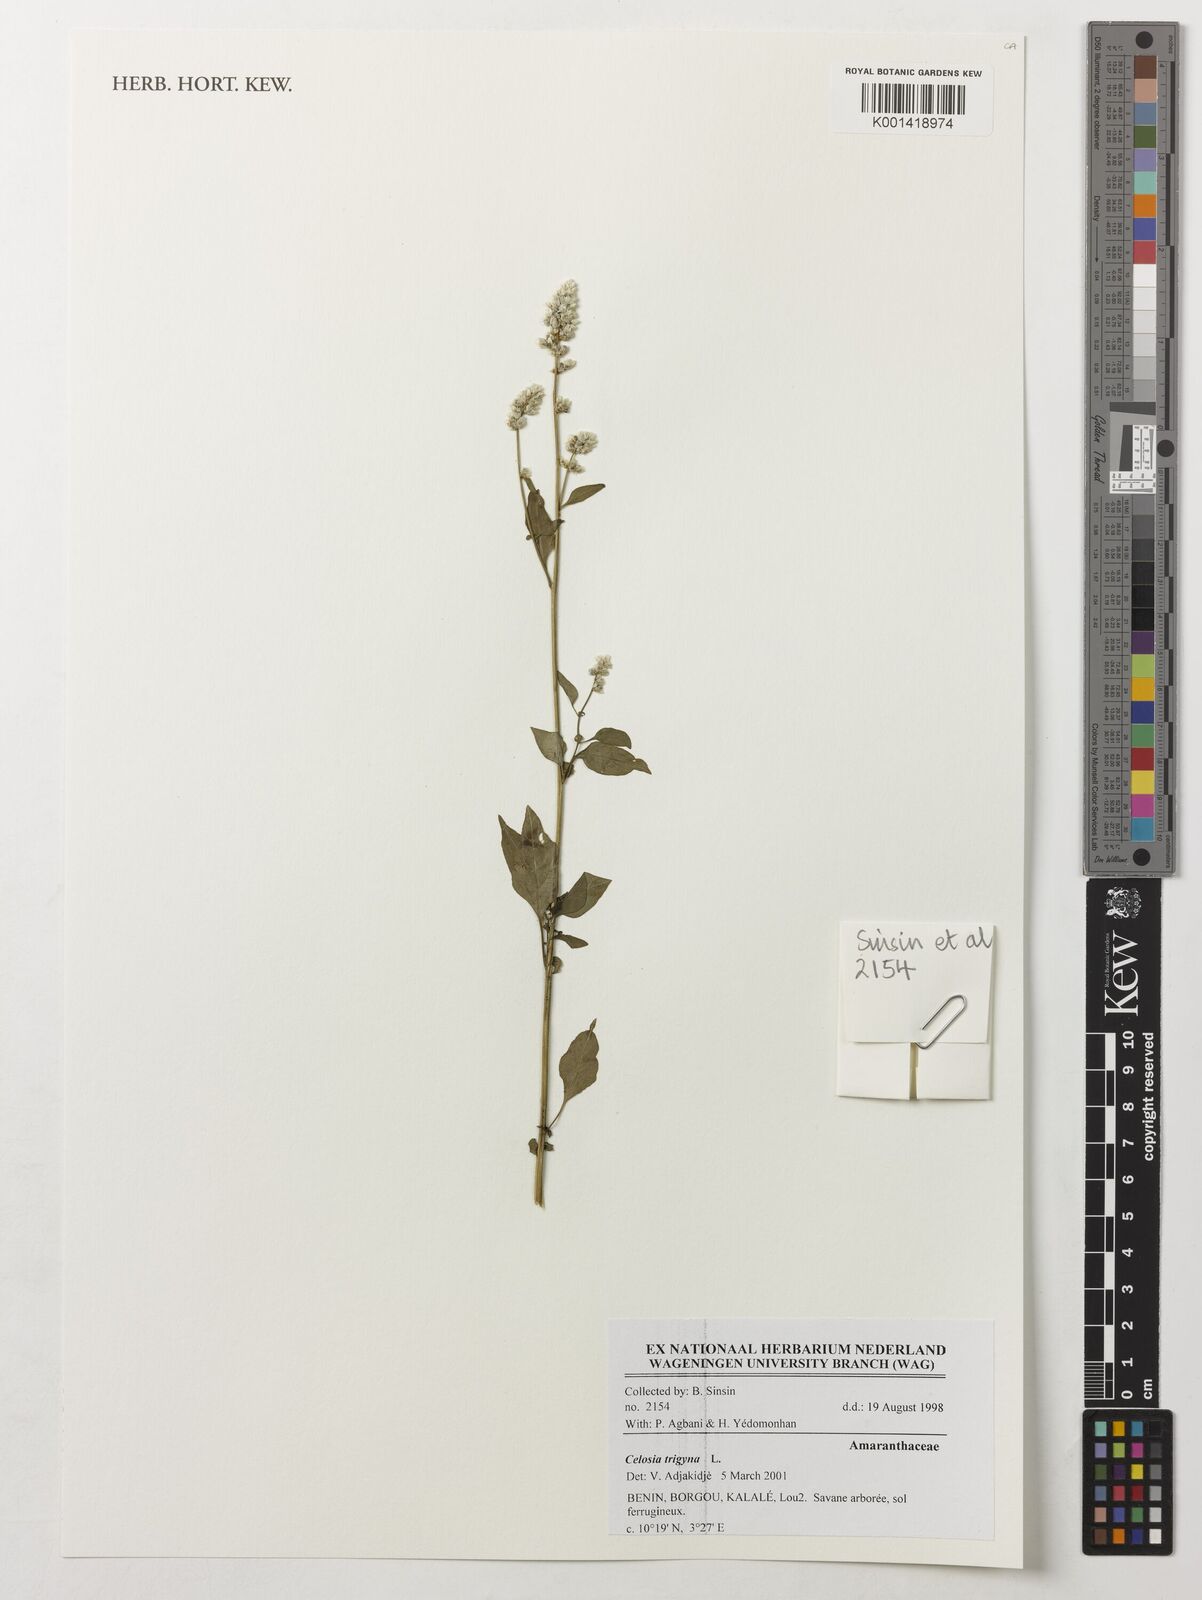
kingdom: Plantae
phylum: Tracheophyta
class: Magnoliopsida
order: Caryophyllales
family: Amaranthaceae
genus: Celosia
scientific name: Celosia trigyna
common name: Woolflower
